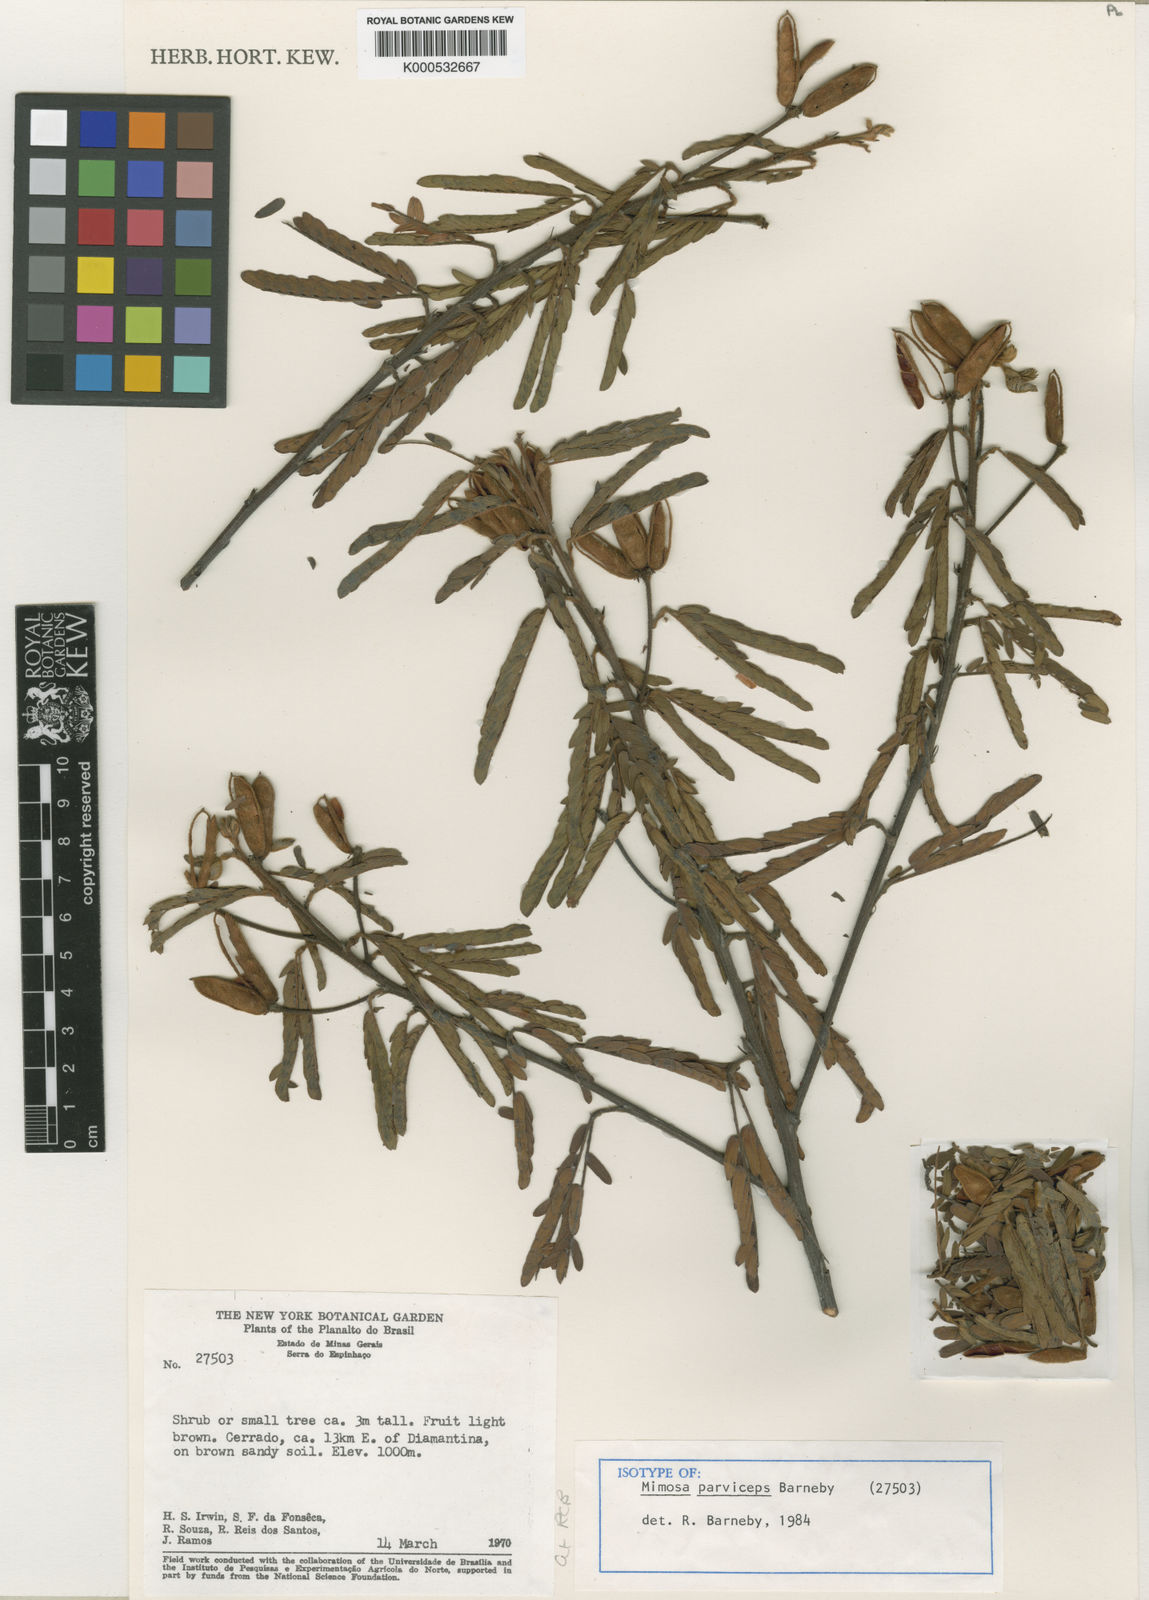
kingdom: Plantae
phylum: Tracheophyta
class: Magnoliopsida
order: Fabales
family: Fabaceae
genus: Mimosa
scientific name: Mimosa parviceps
